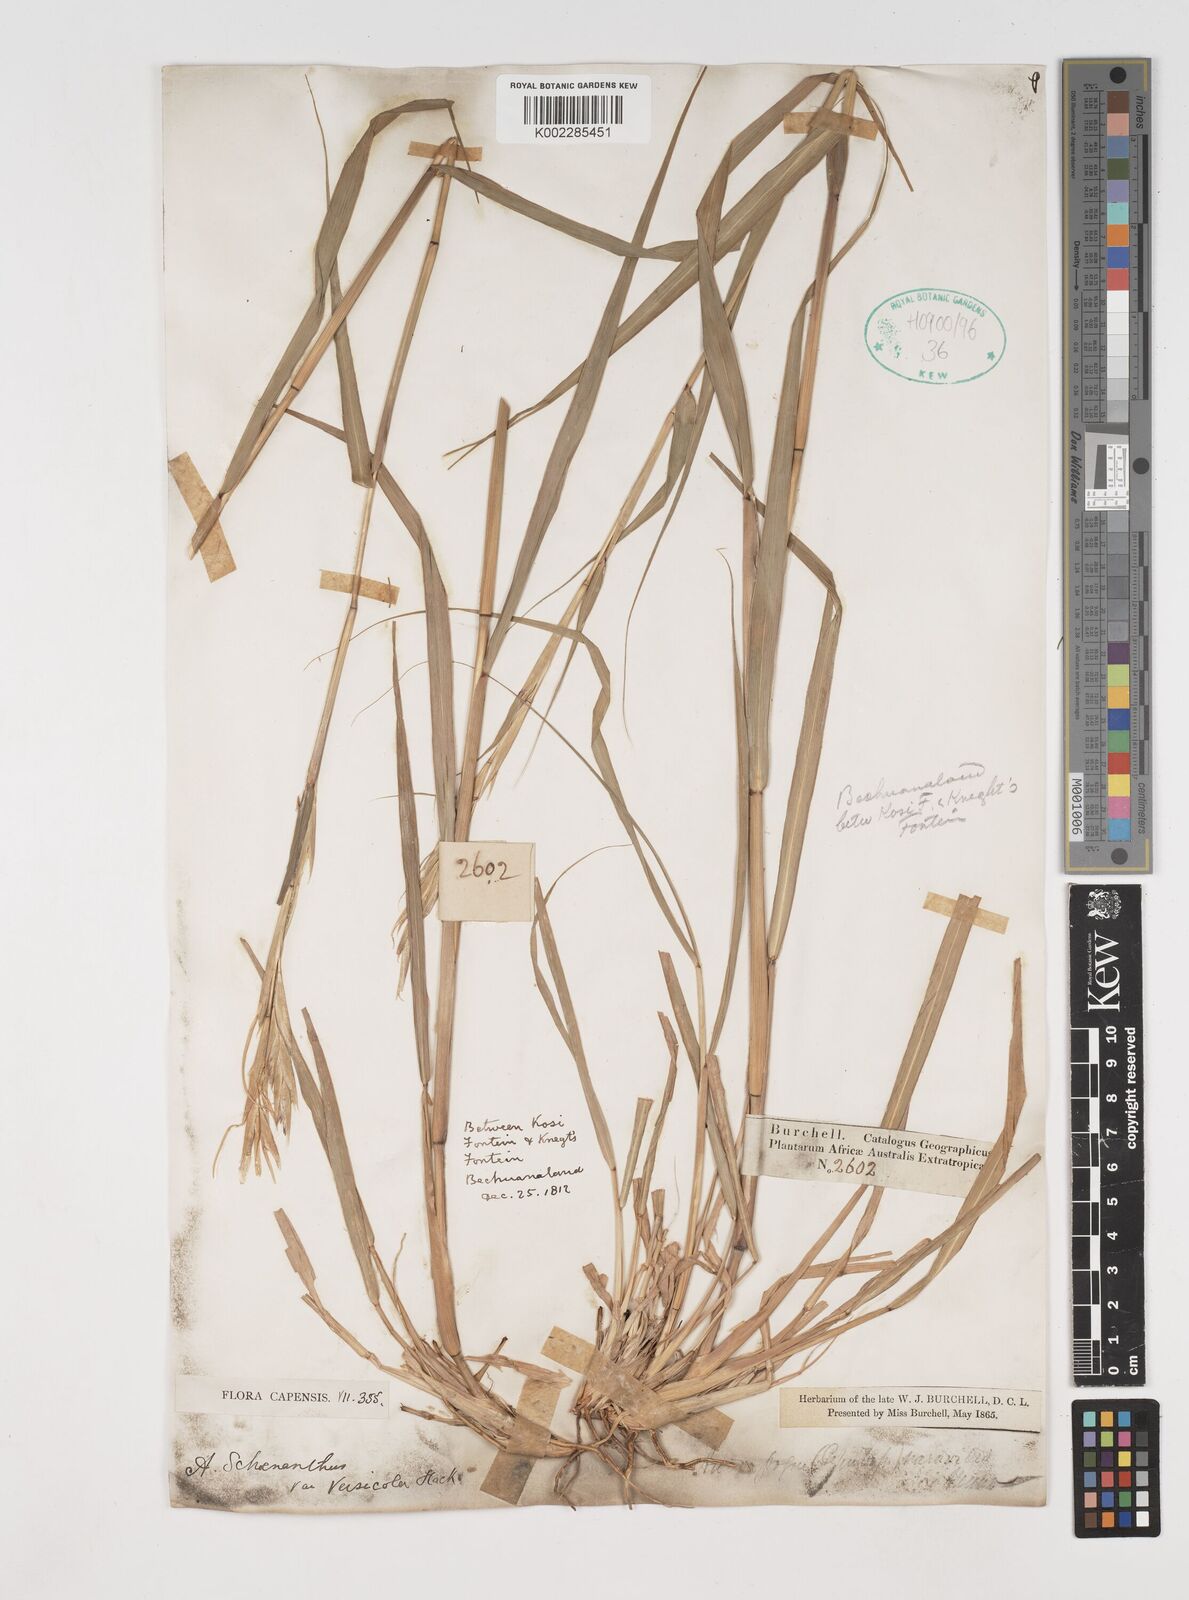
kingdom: Plantae
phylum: Tracheophyta
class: Liliopsida
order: Poales
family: Poaceae
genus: Cymbopogon
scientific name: Cymbopogon pospischilii
